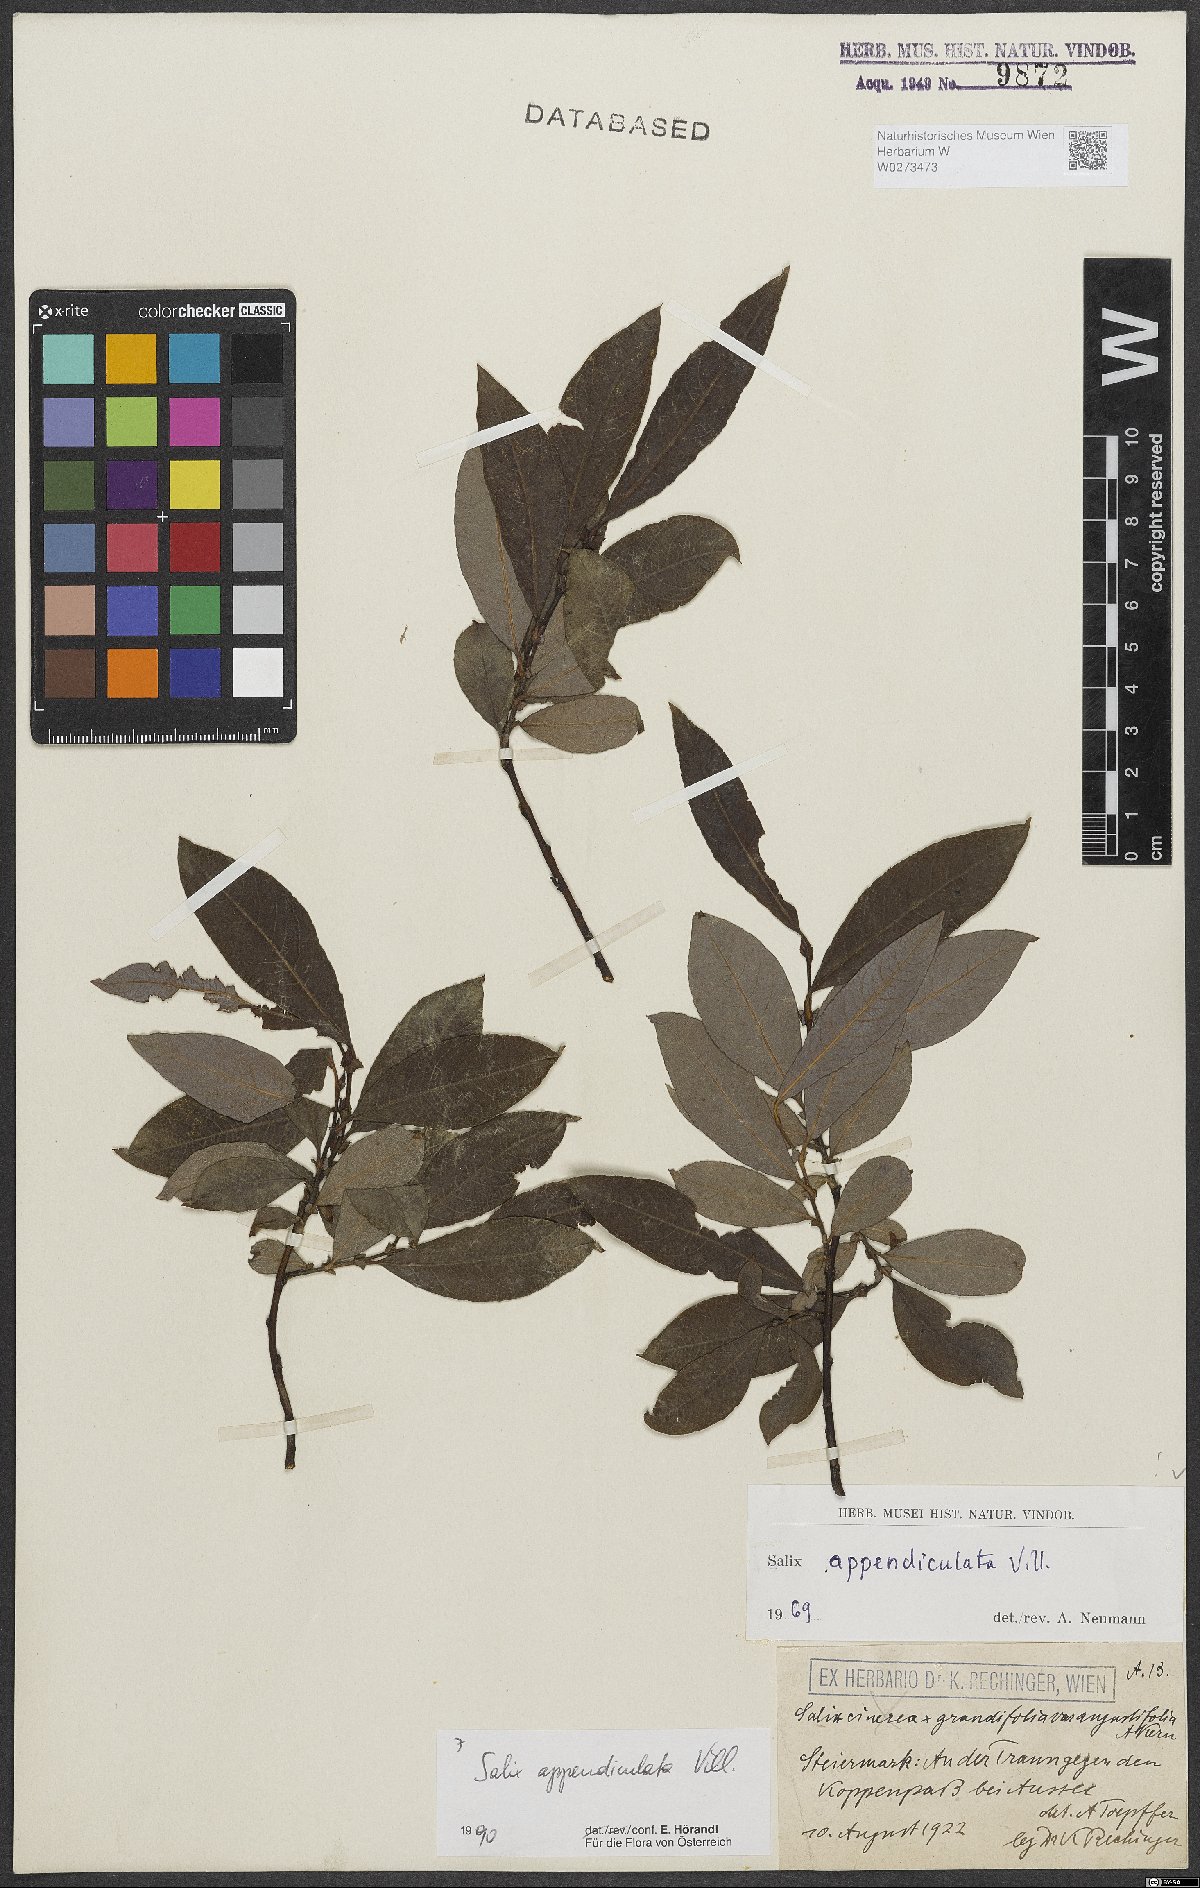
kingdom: Plantae
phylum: Tracheophyta
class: Magnoliopsida
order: Malpighiales
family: Salicaceae
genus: Salix
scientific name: Salix appendiculata
